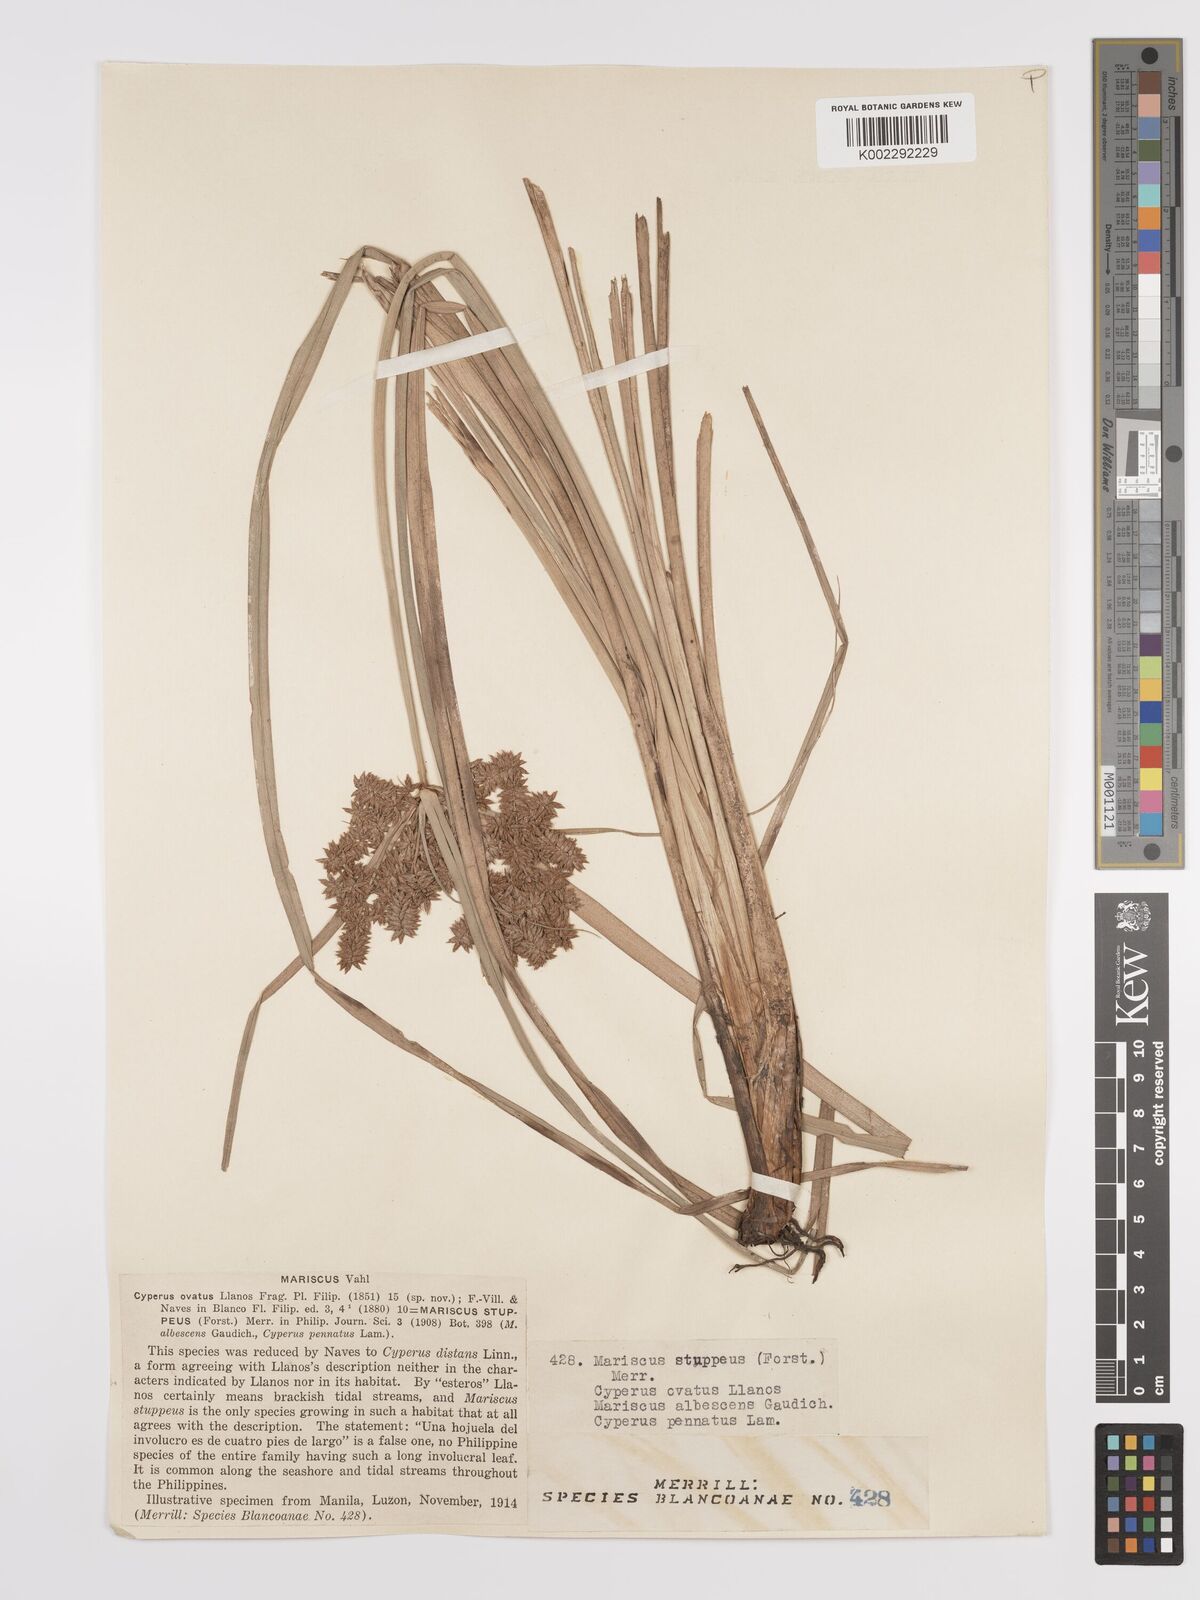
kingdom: Plantae
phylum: Tracheophyta
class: Liliopsida
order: Poales
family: Cyperaceae
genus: Cyperus
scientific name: Cyperus javanicus
